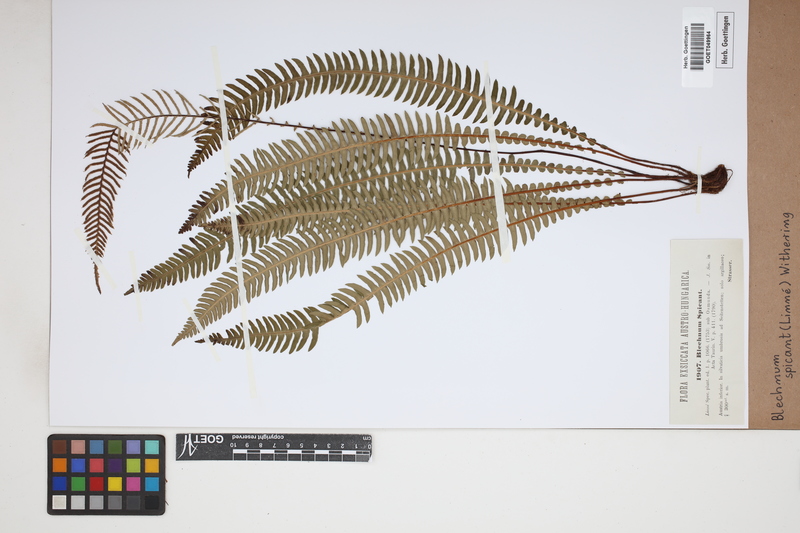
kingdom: Plantae
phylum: Tracheophyta
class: Polypodiopsida
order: Polypodiales
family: Blechnaceae
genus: Struthiopteris
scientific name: Struthiopteris spicant
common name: Deer fern
